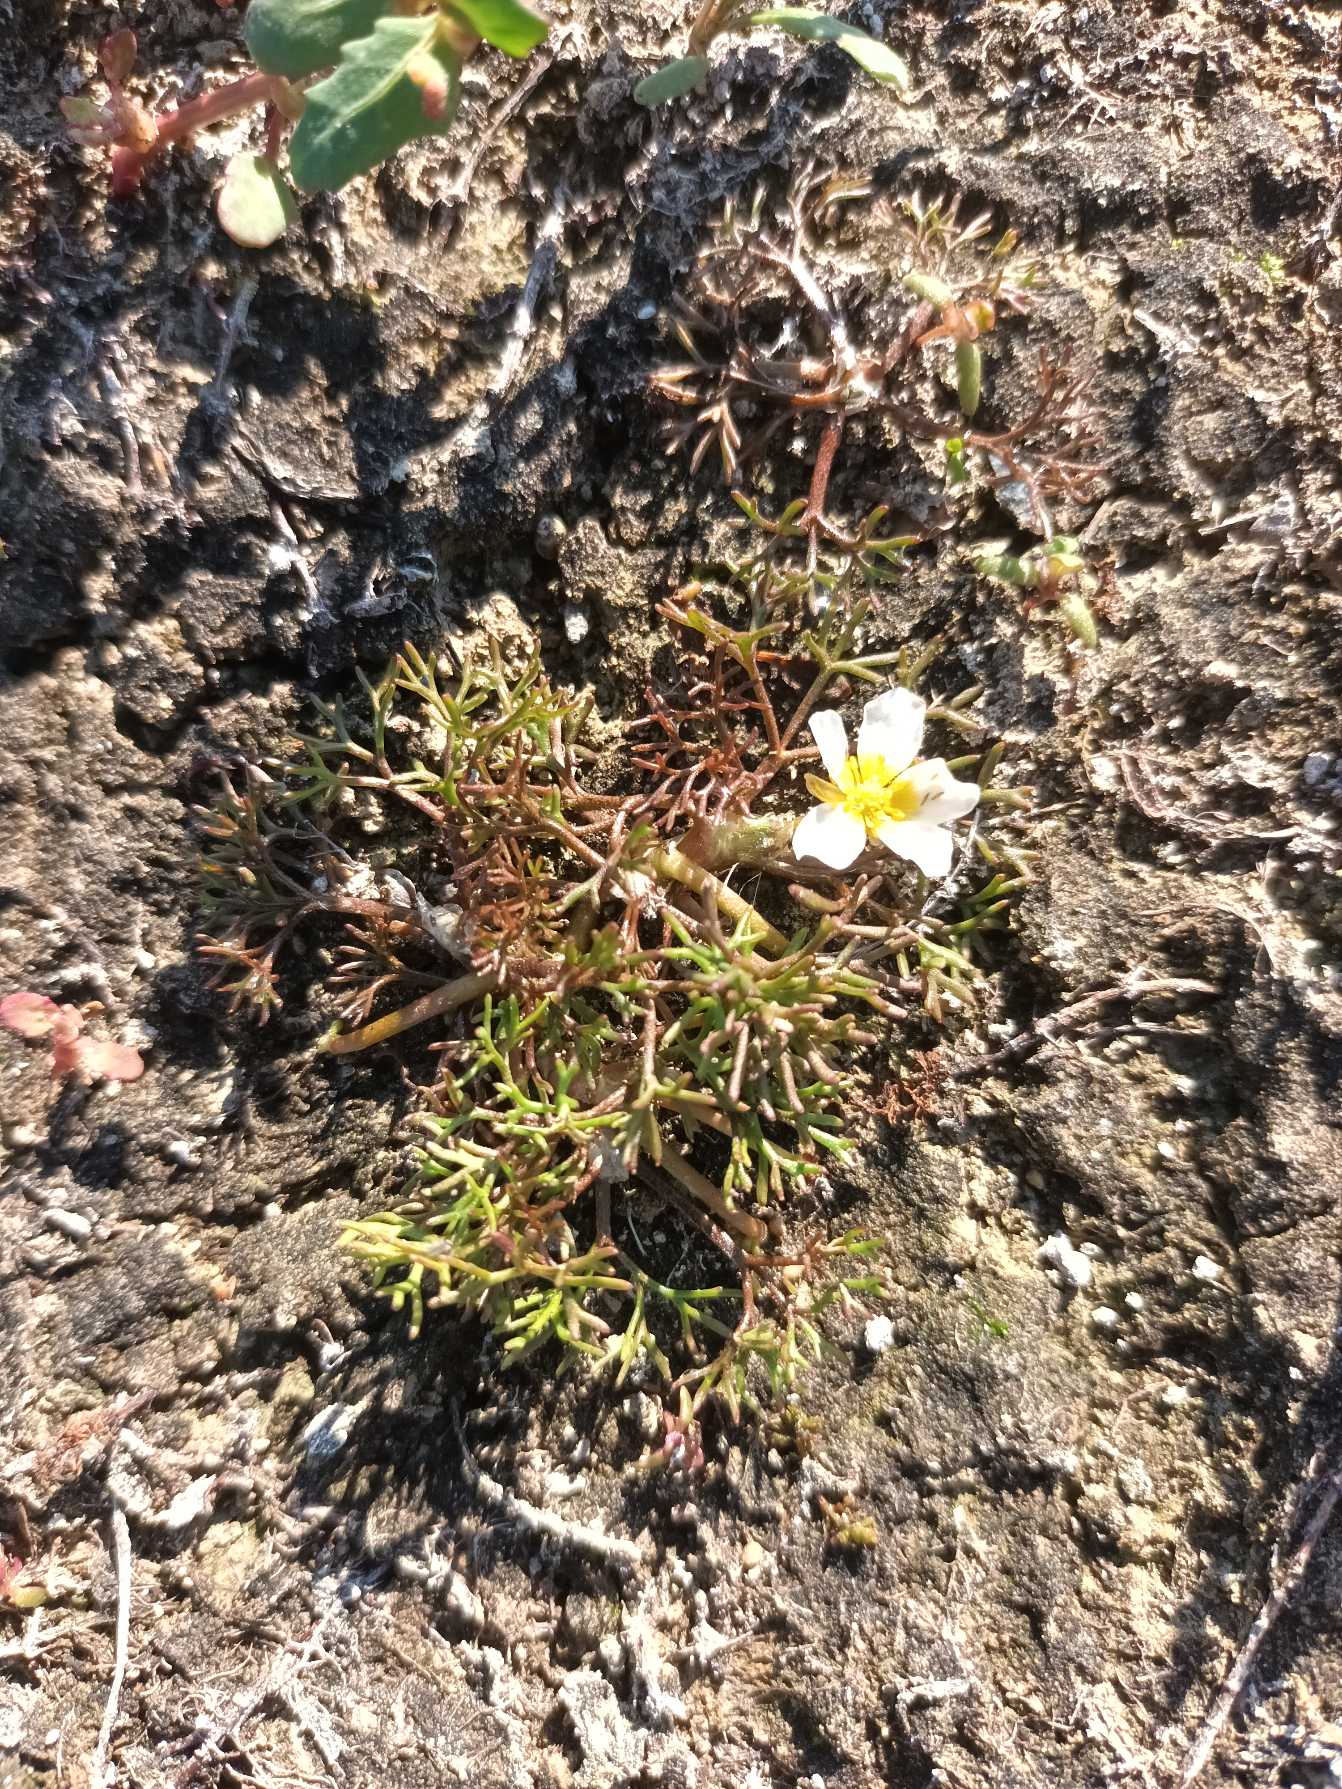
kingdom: Plantae
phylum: Tracheophyta
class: Magnoliopsida
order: Ranunculales
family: Ranunculaceae
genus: Ranunculus
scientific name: Ranunculus
